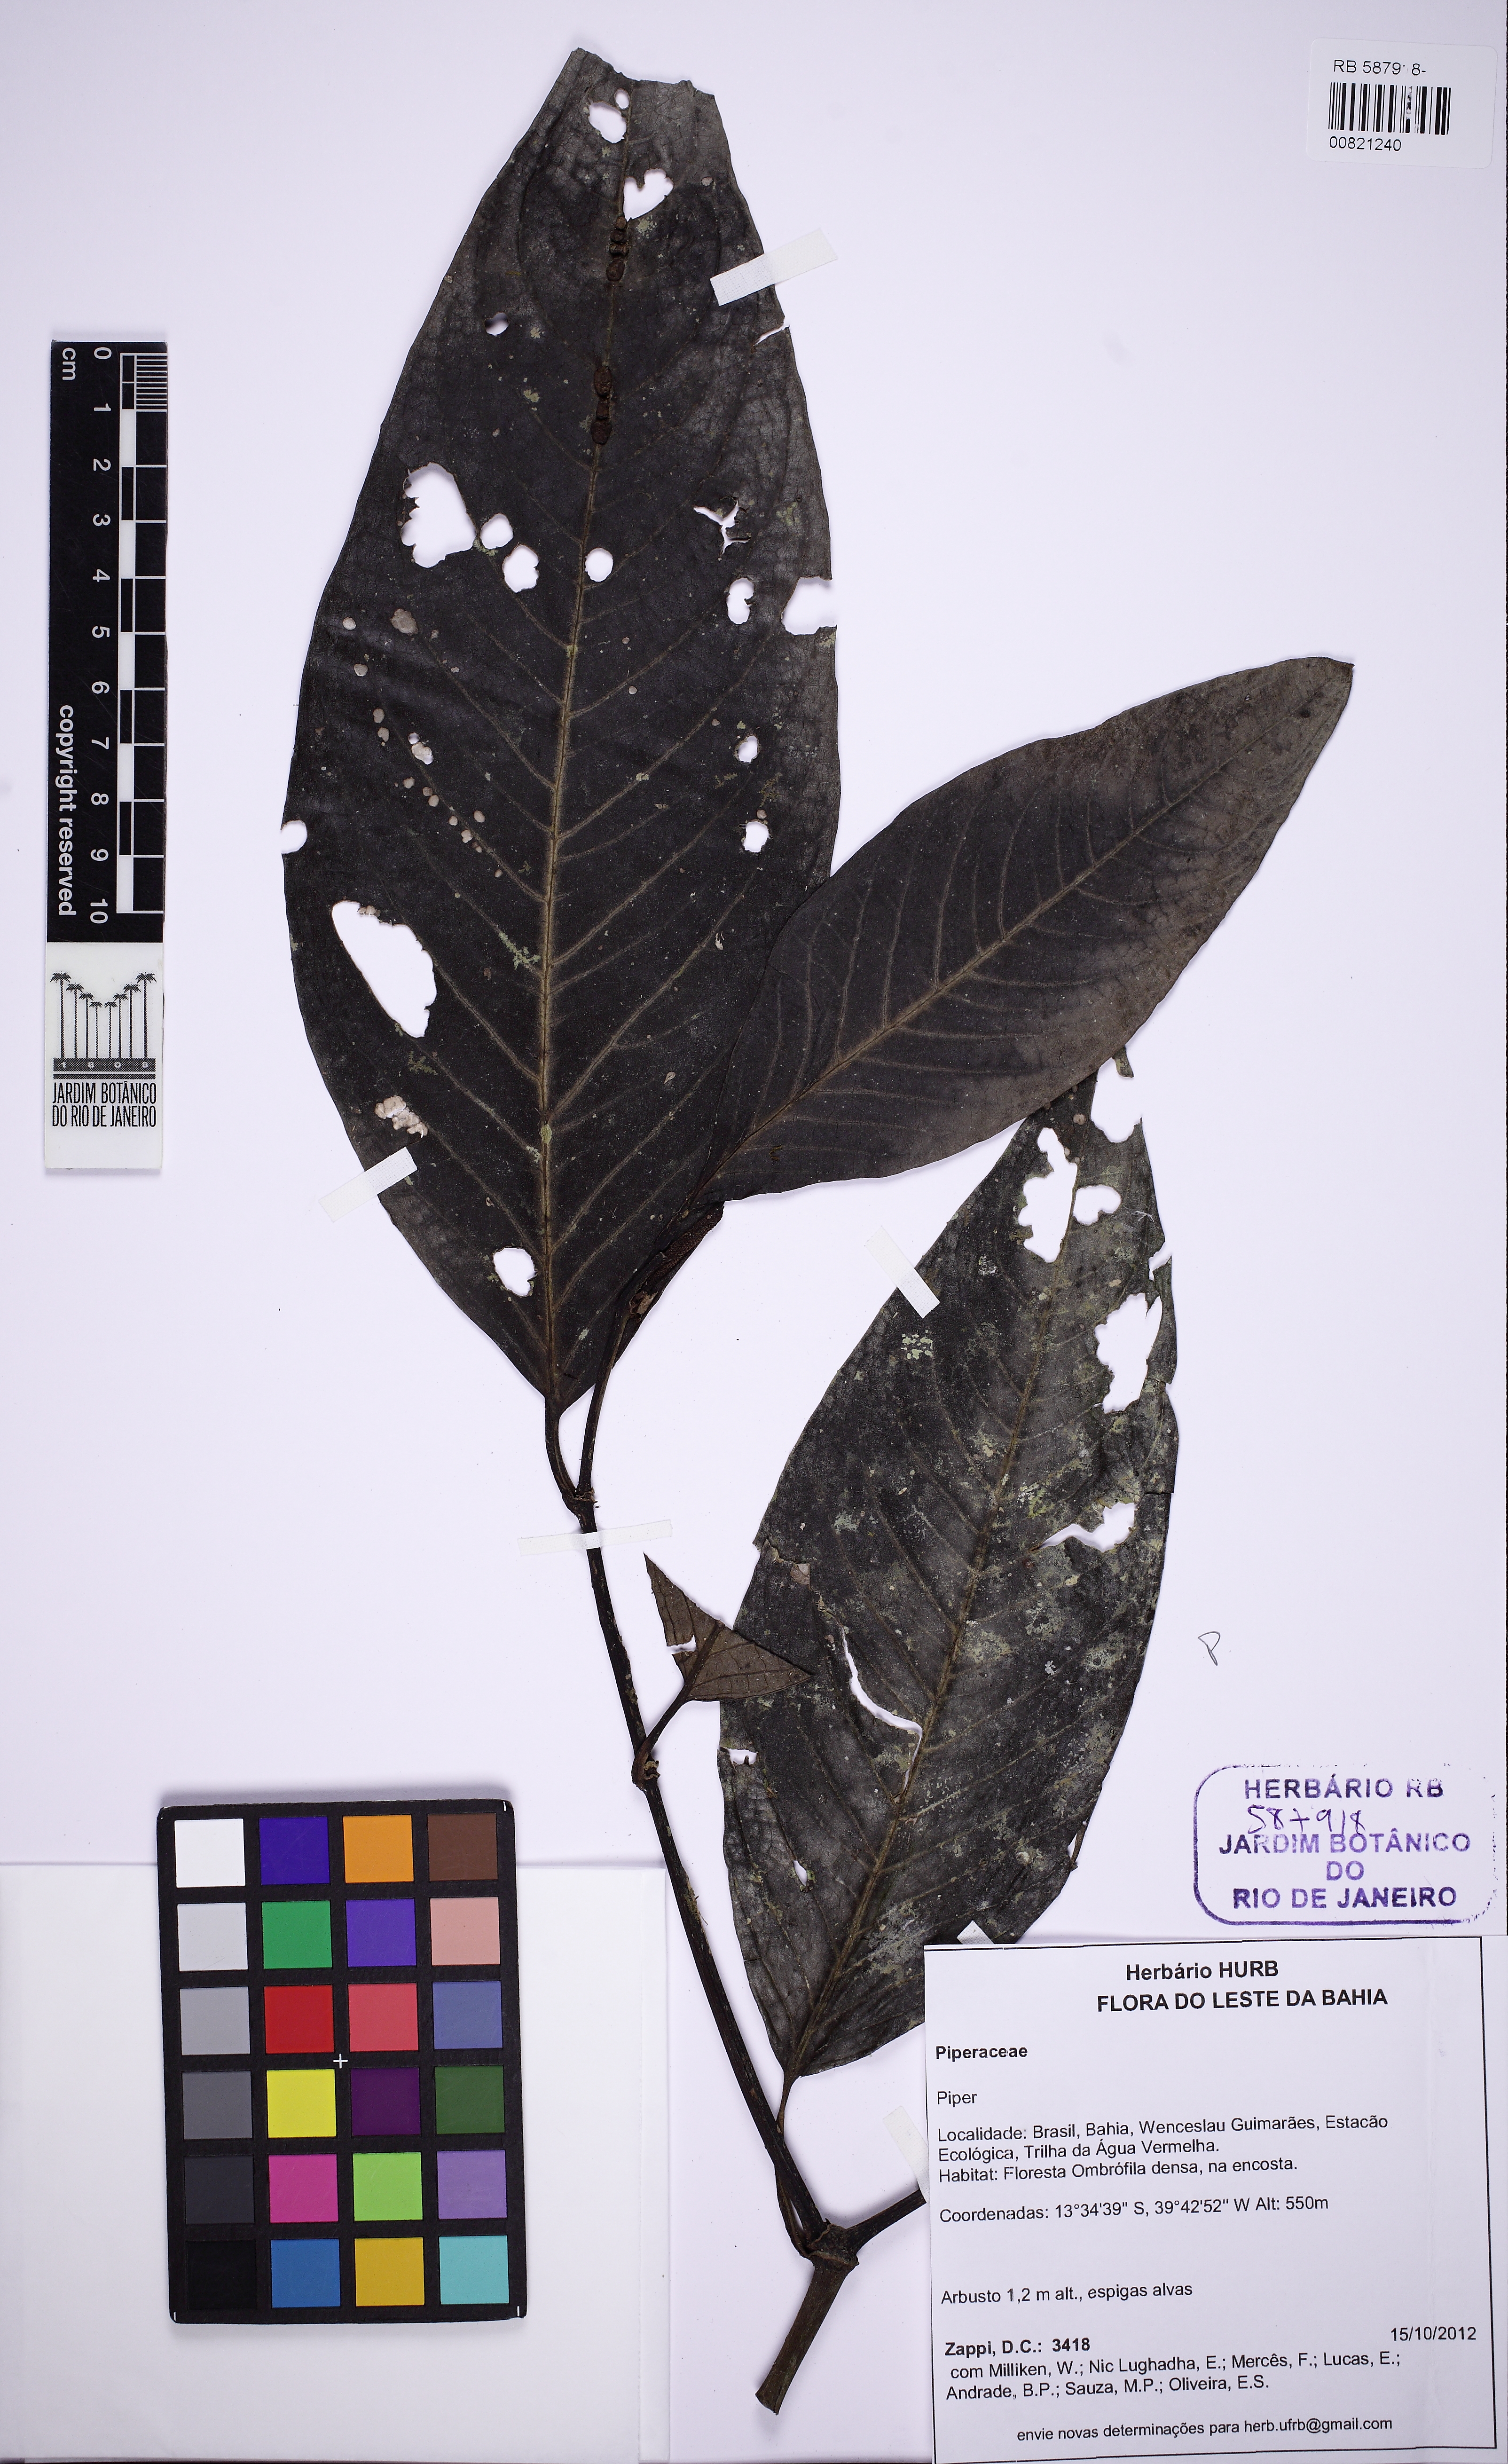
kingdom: Plantae
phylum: Tracheophyta
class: Magnoliopsida
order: Piperales
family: Piperaceae
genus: Piper
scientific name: Piper robustipedunculum
